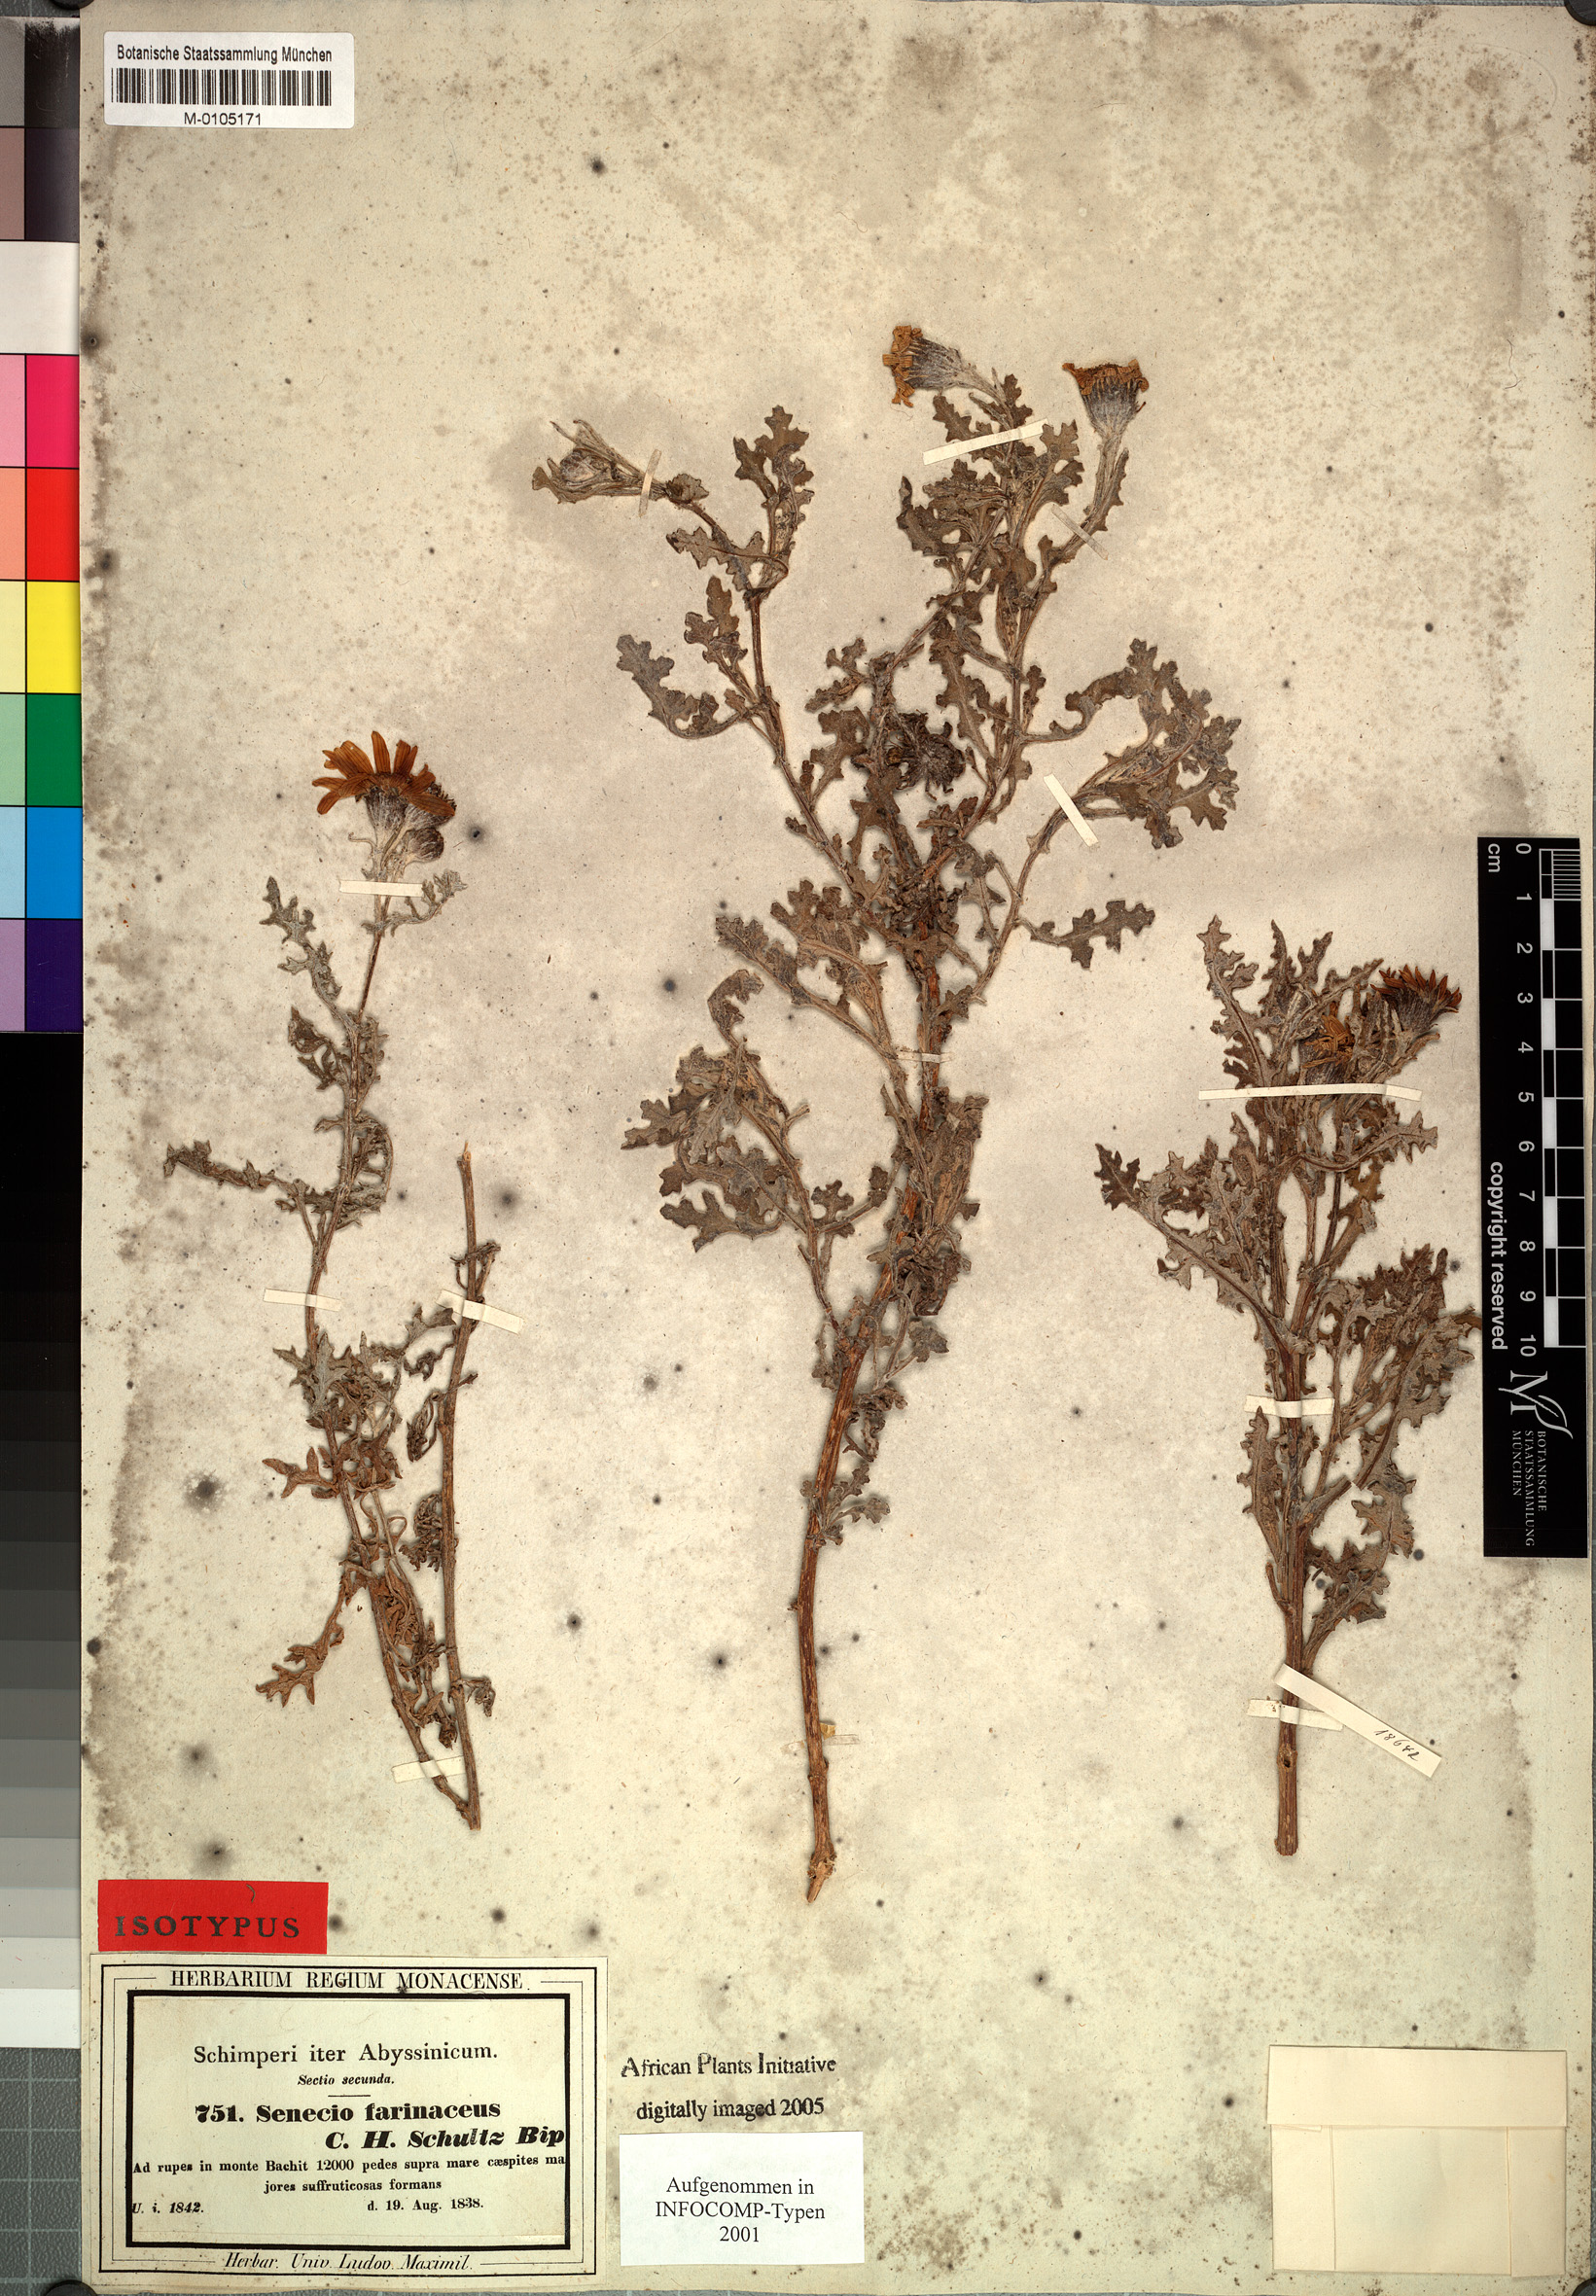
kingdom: Plantae
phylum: Tracheophyta
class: Magnoliopsida
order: Asterales
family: Asteraceae
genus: Senecio
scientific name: Senecio farinaceus
